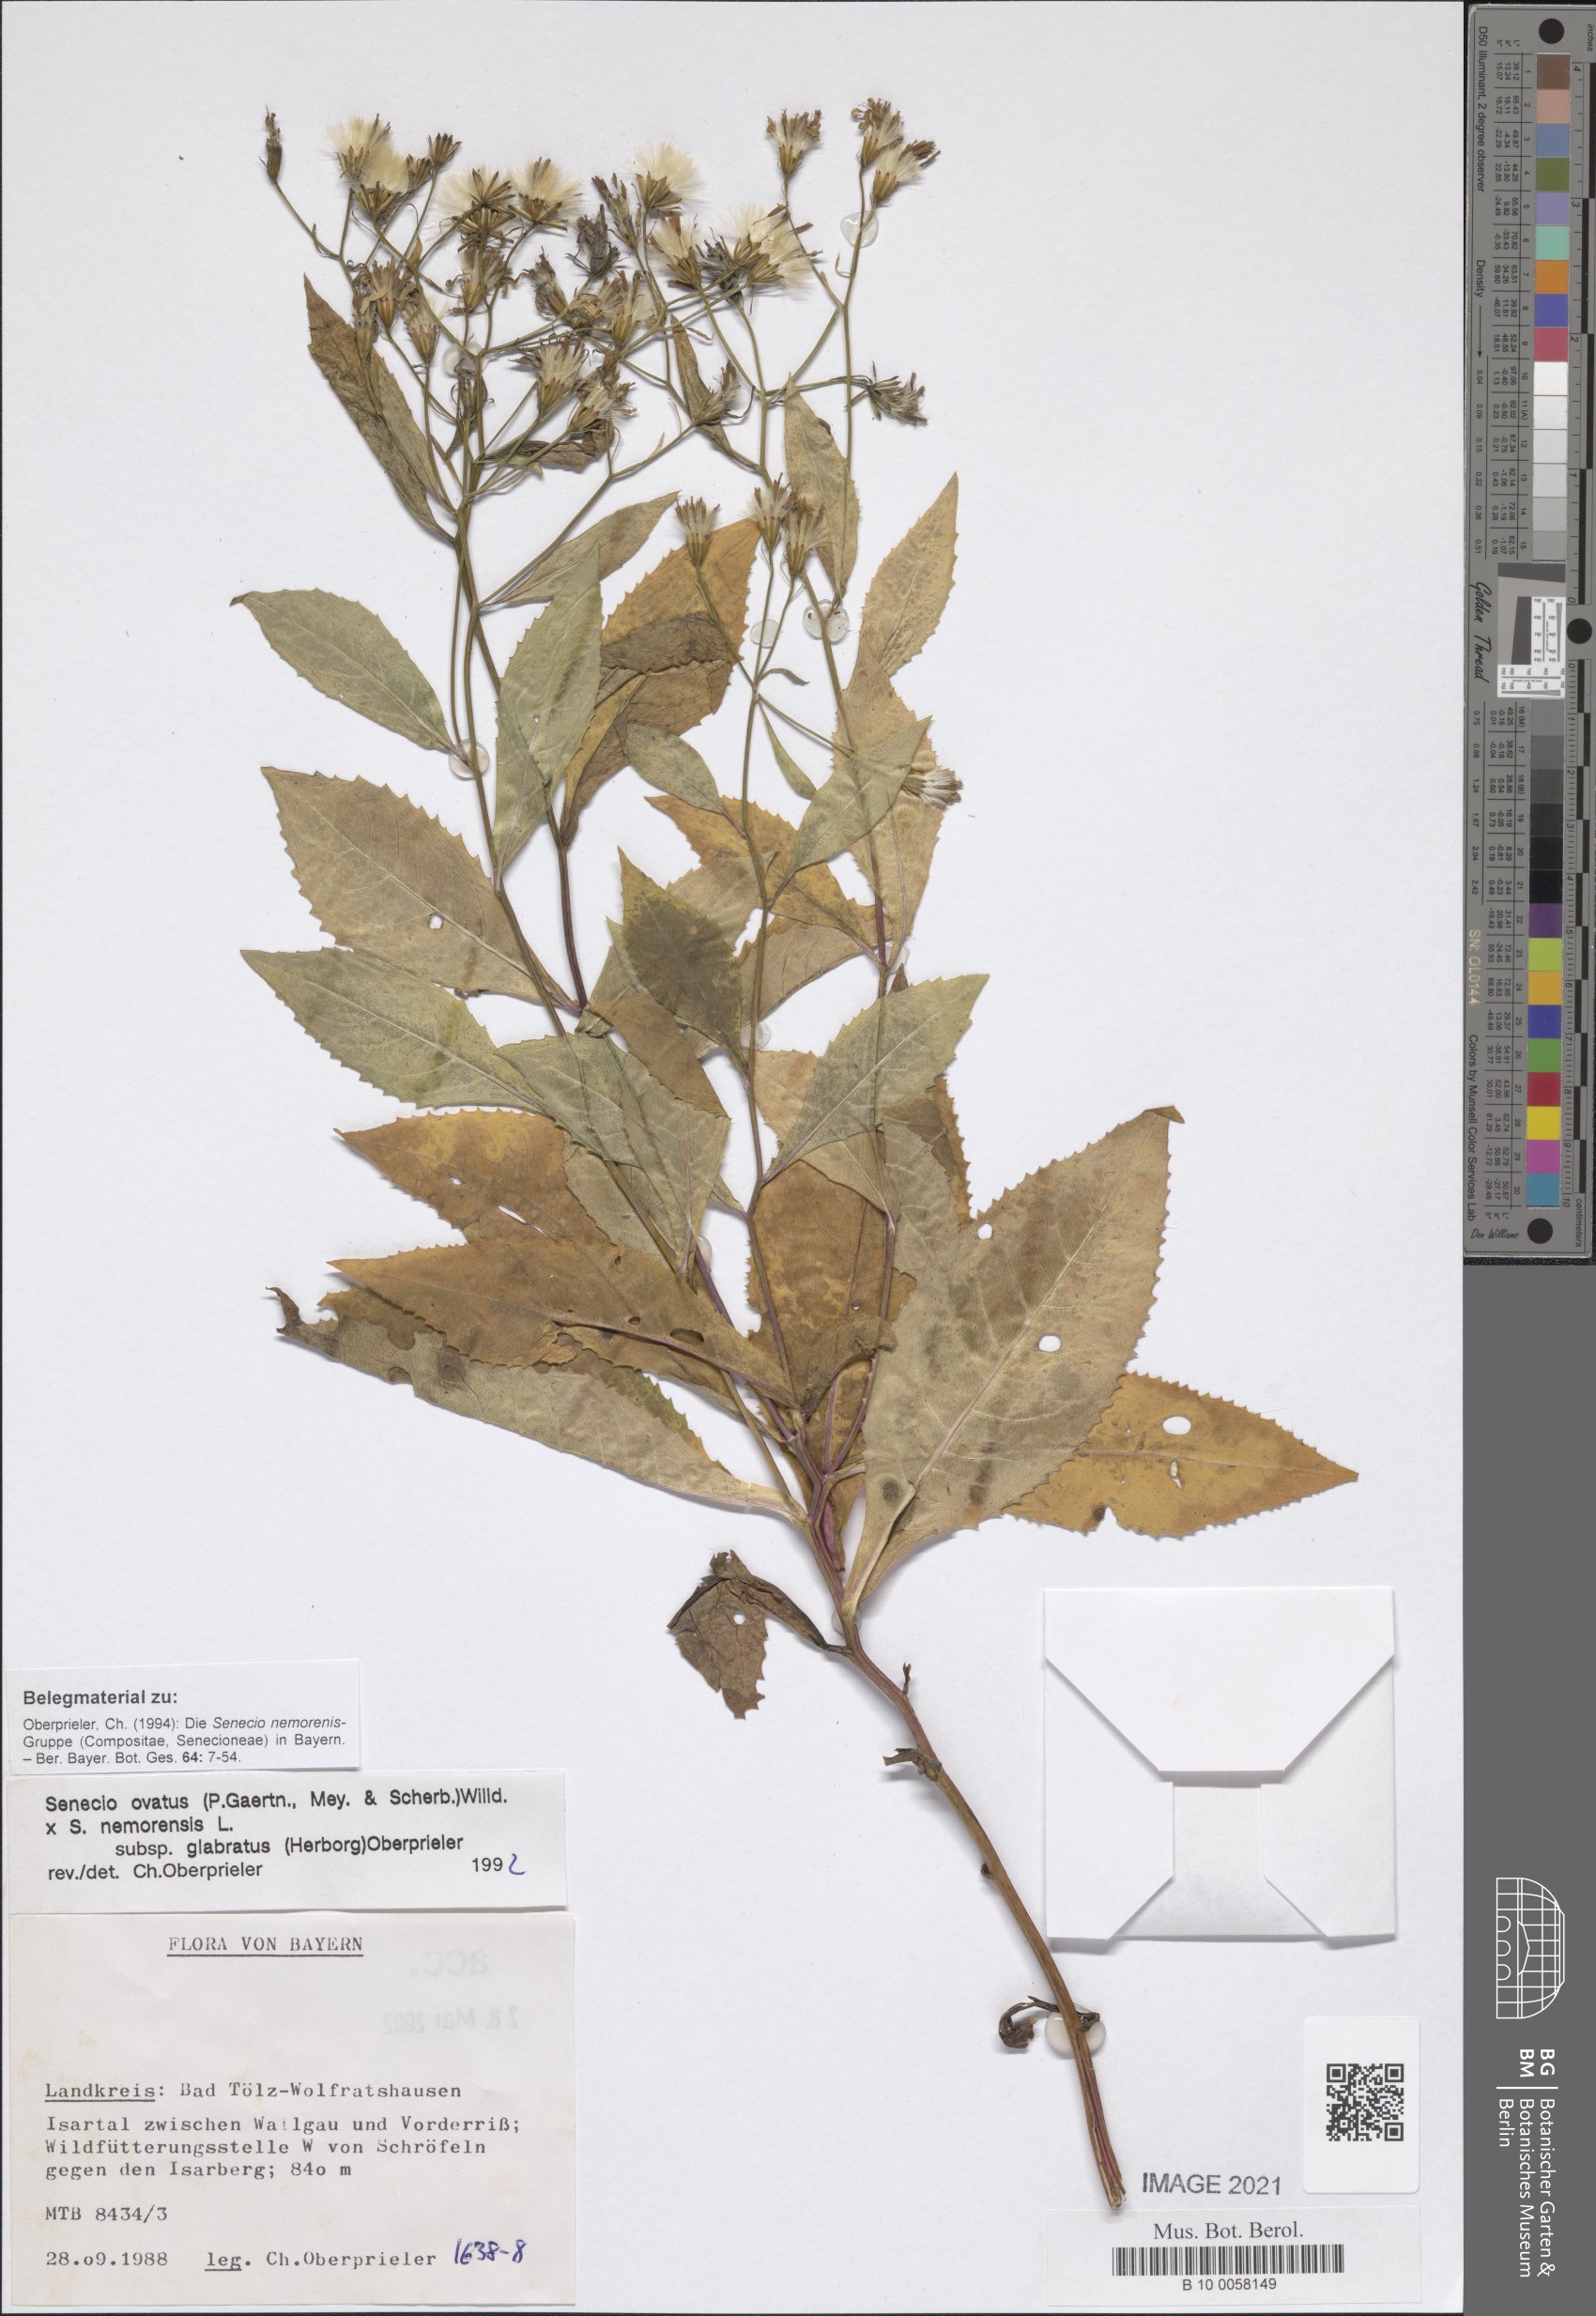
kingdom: Plantae
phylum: Tracheophyta
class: Magnoliopsida
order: Asterales
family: Asteraceae
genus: Senecio
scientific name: Senecio ovatus
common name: Wood ragwort
